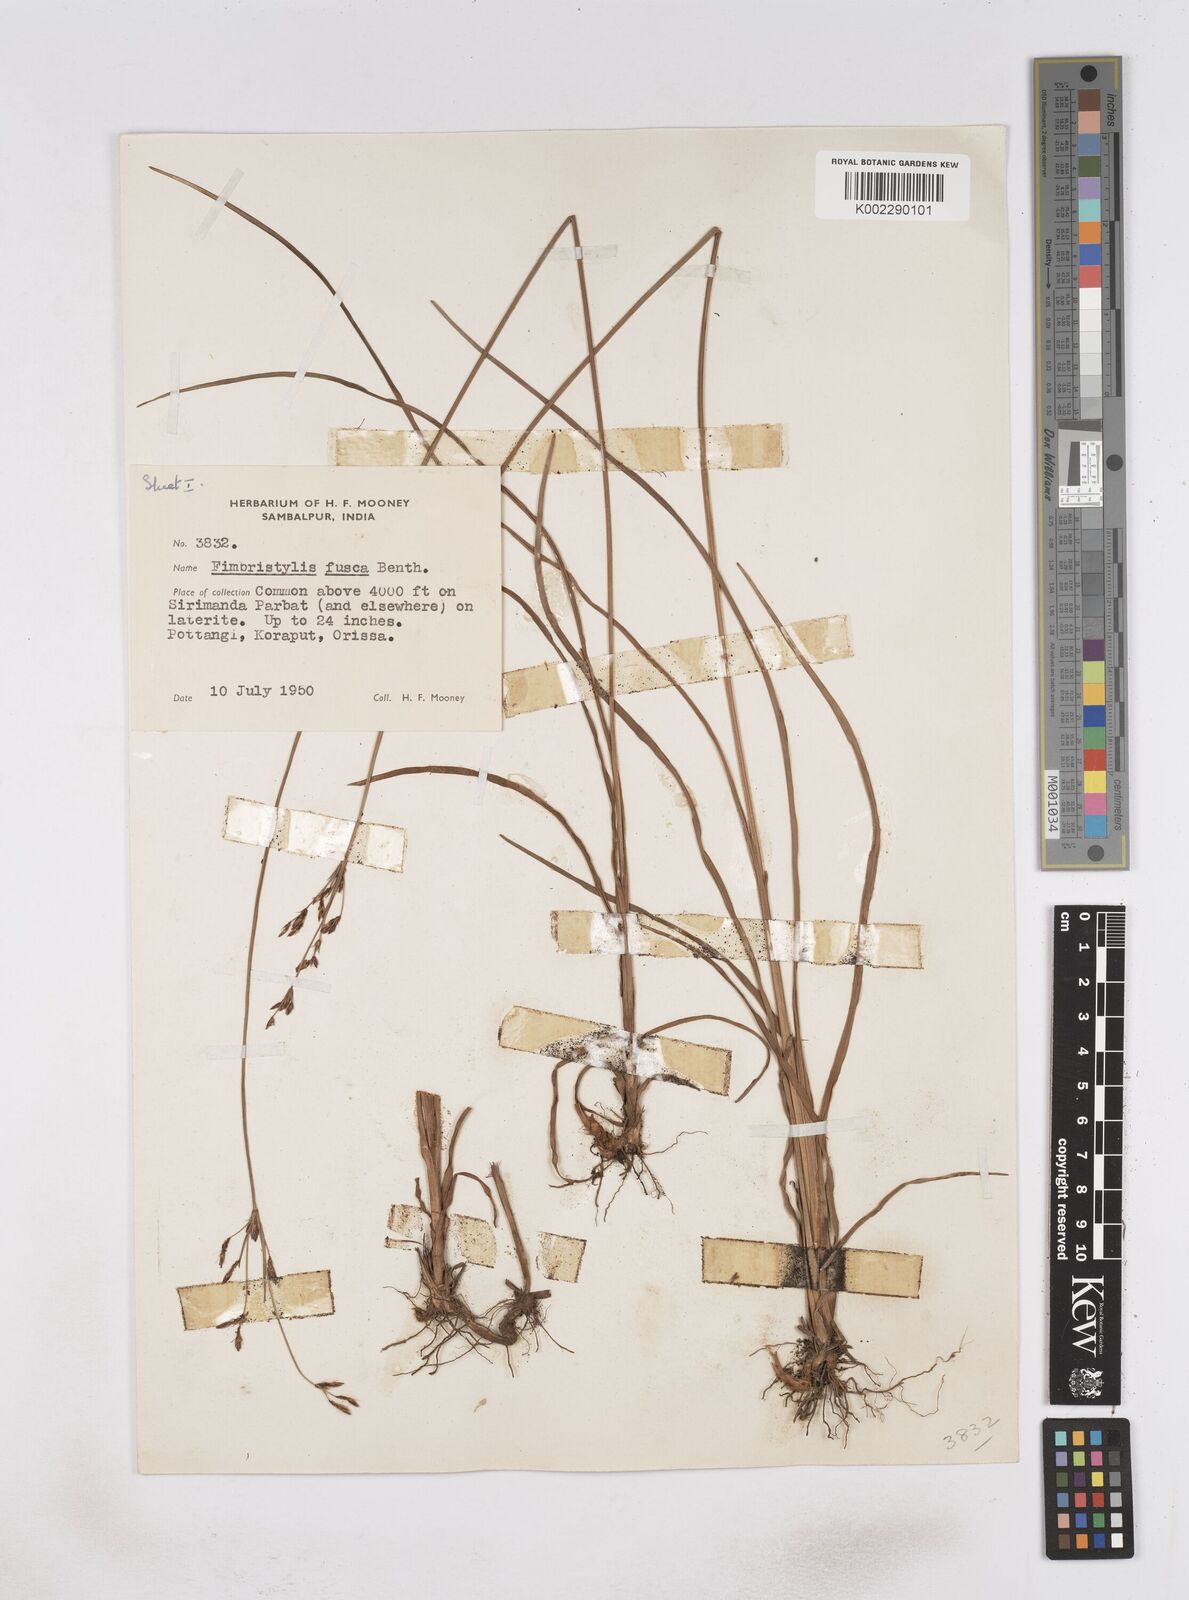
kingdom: Plantae
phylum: Tracheophyta
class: Liliopsida
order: Poales
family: Cyperaceae
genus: Fimbristylis
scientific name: Fimbristylis fusca
